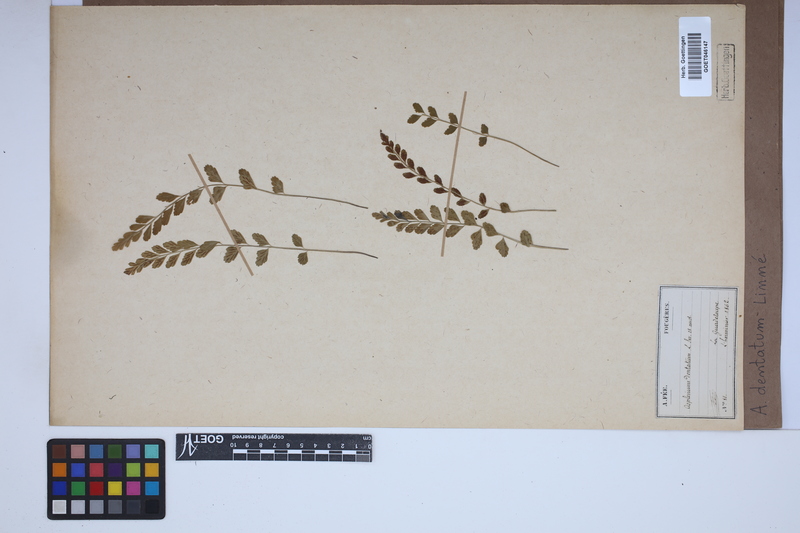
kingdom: Plantae
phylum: Tracheophyta
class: Polypodiopsida
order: Polypodiales
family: Aspleniaceae
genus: Asplenium
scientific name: Asplenium dentatum
